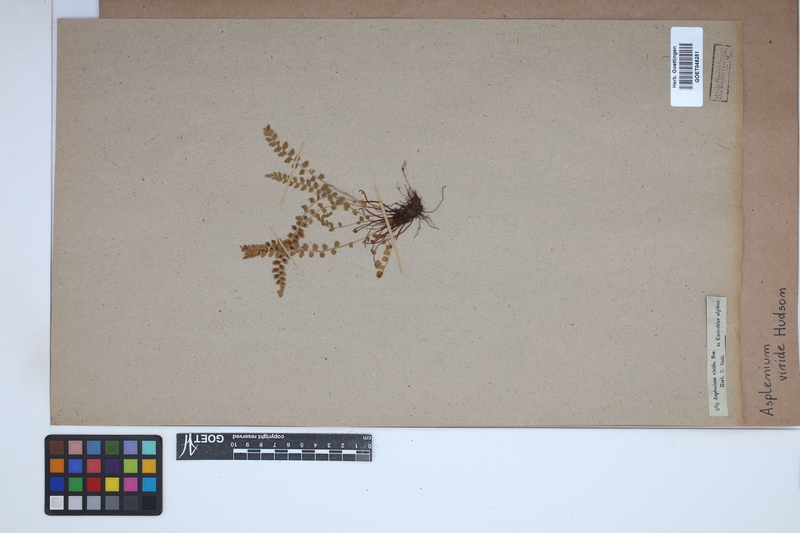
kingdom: Plantae
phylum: Tracheophyta
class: Polypodiopsida
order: Polypodiales
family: Aspleniaceae
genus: Asplenium
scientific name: Asplenium viride
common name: Green spleenwort
